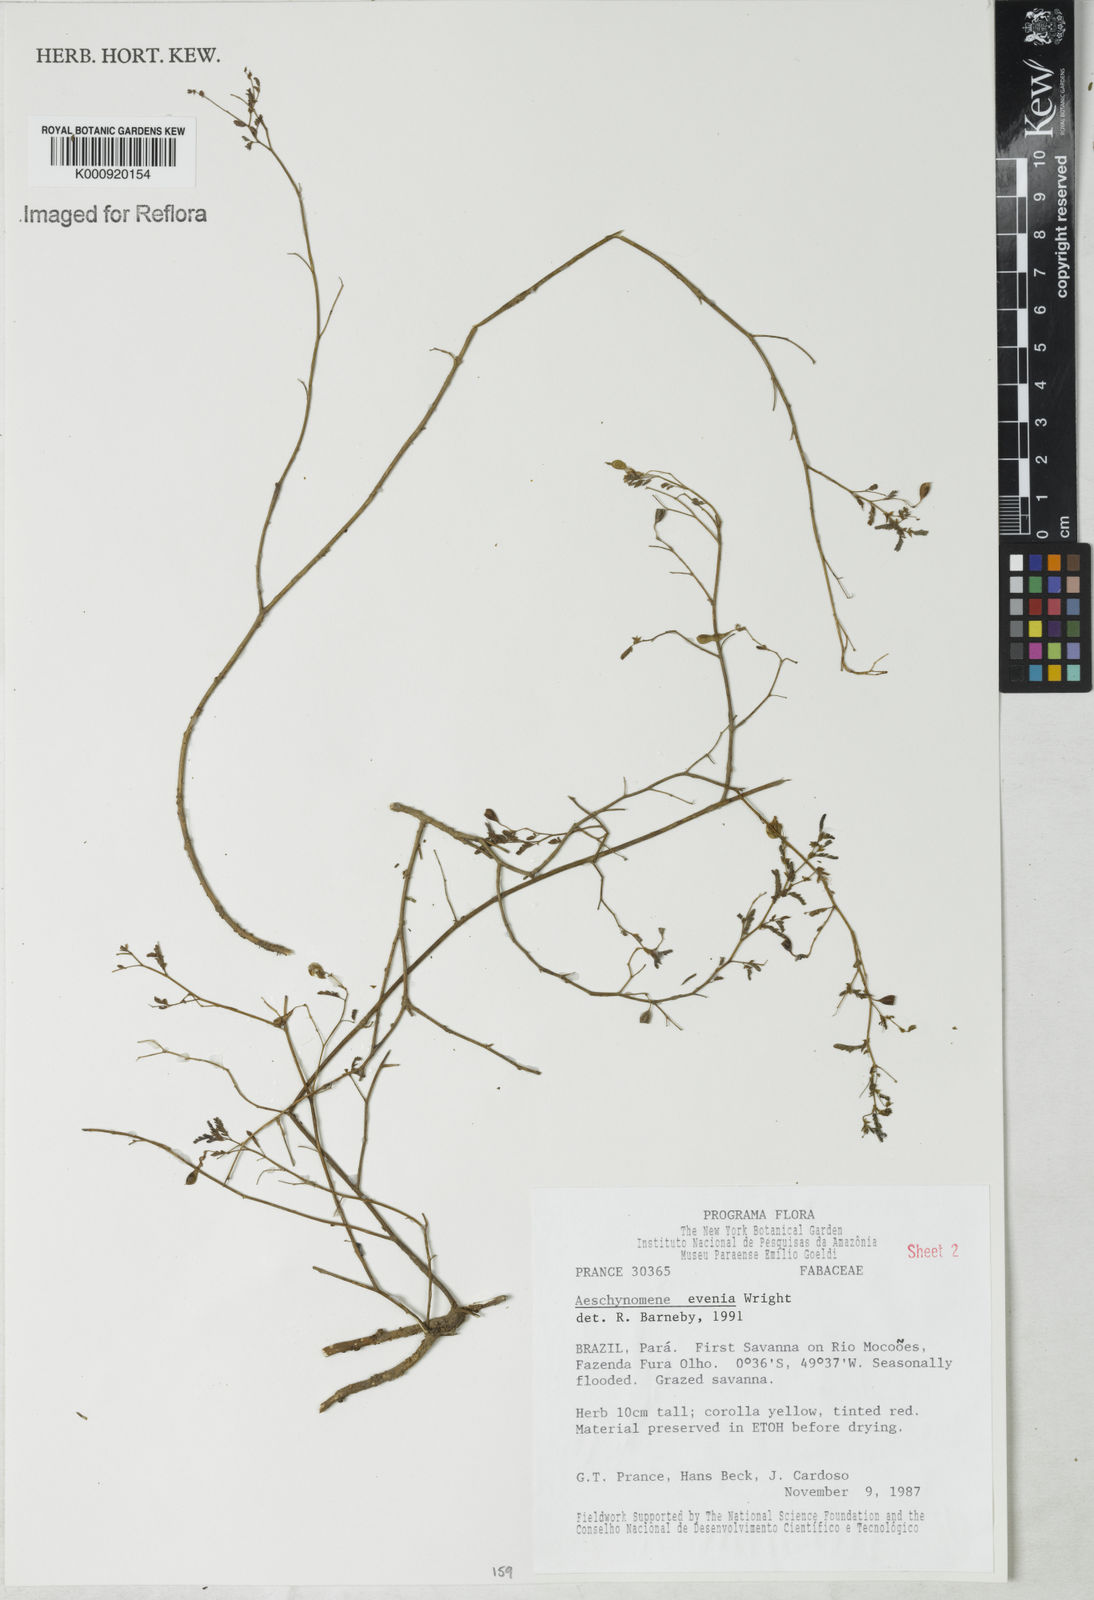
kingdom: Plantae
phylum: Tracheophyta
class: Magnoliopsida
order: Fabales
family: Fabaceae
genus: Aeschynomene
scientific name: Aeschynomene evenia
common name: Shrubby jointvetch
